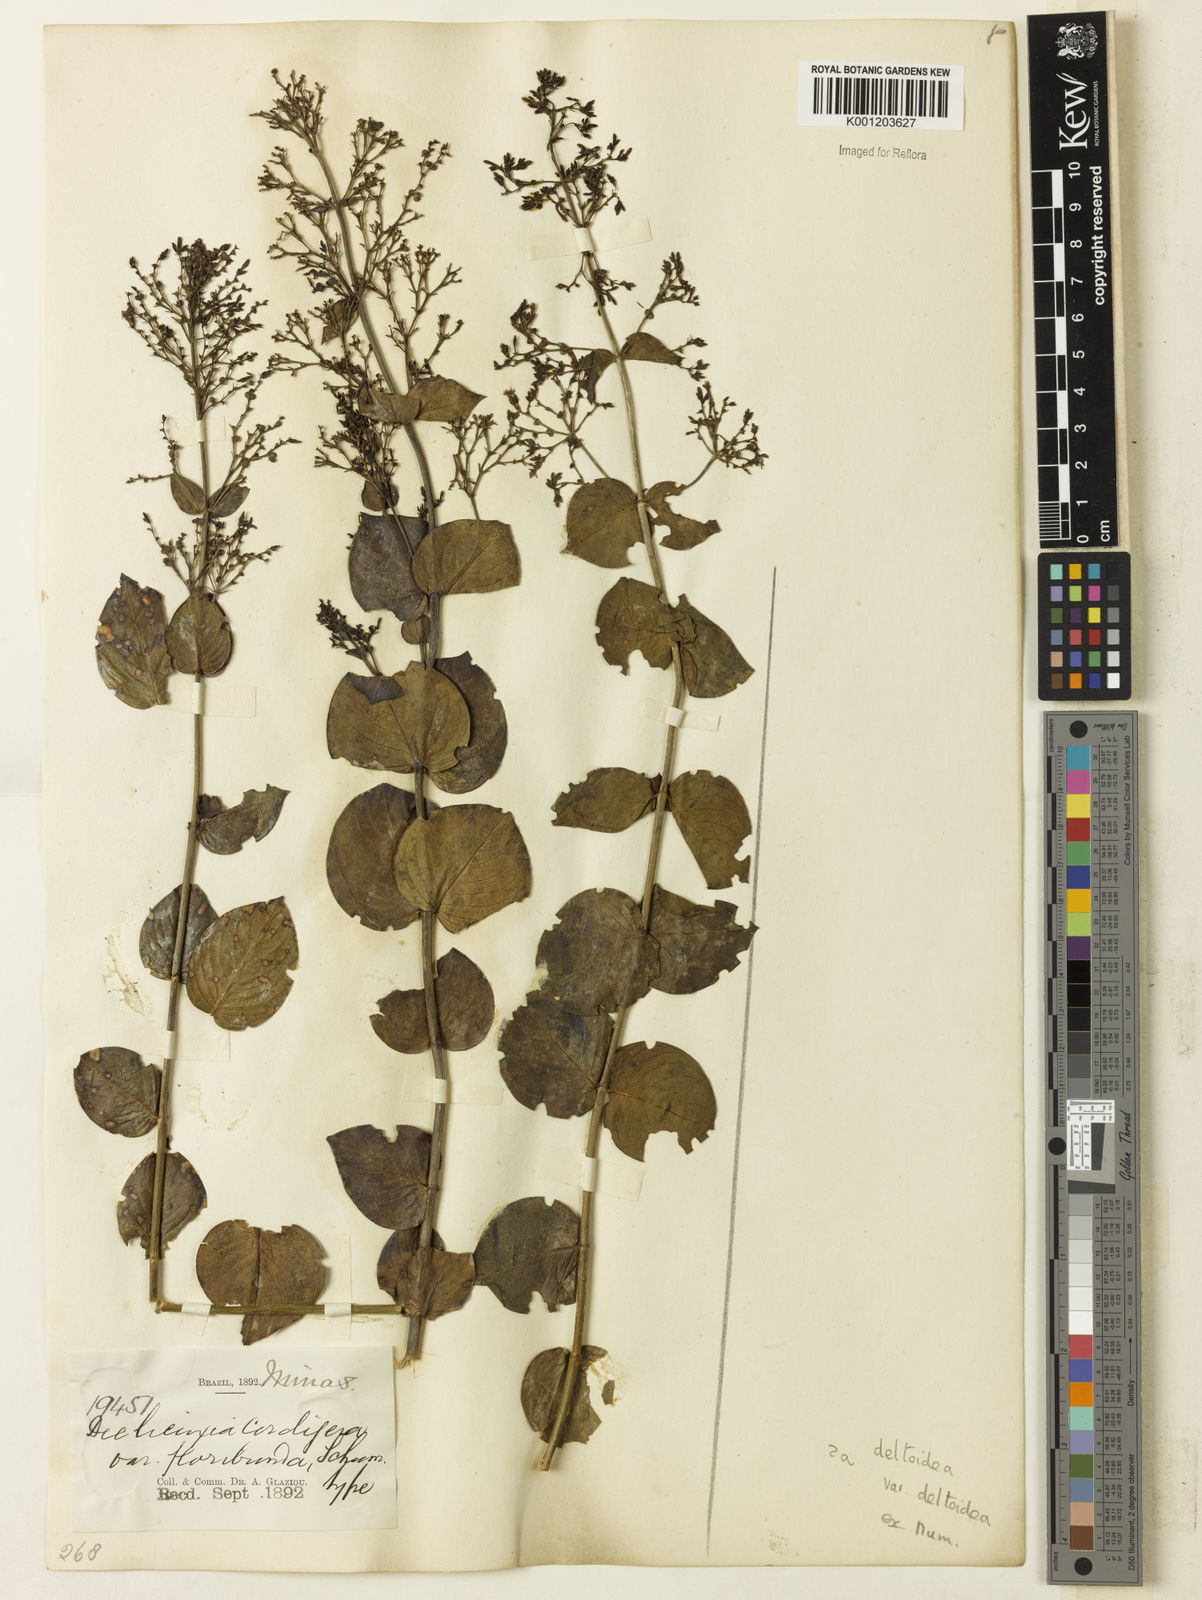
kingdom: Plantae
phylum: Tracheophyta
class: Magnoliopsida
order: Gentianales
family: Rubiaceae
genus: Declieuxia
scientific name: Declieuxia
